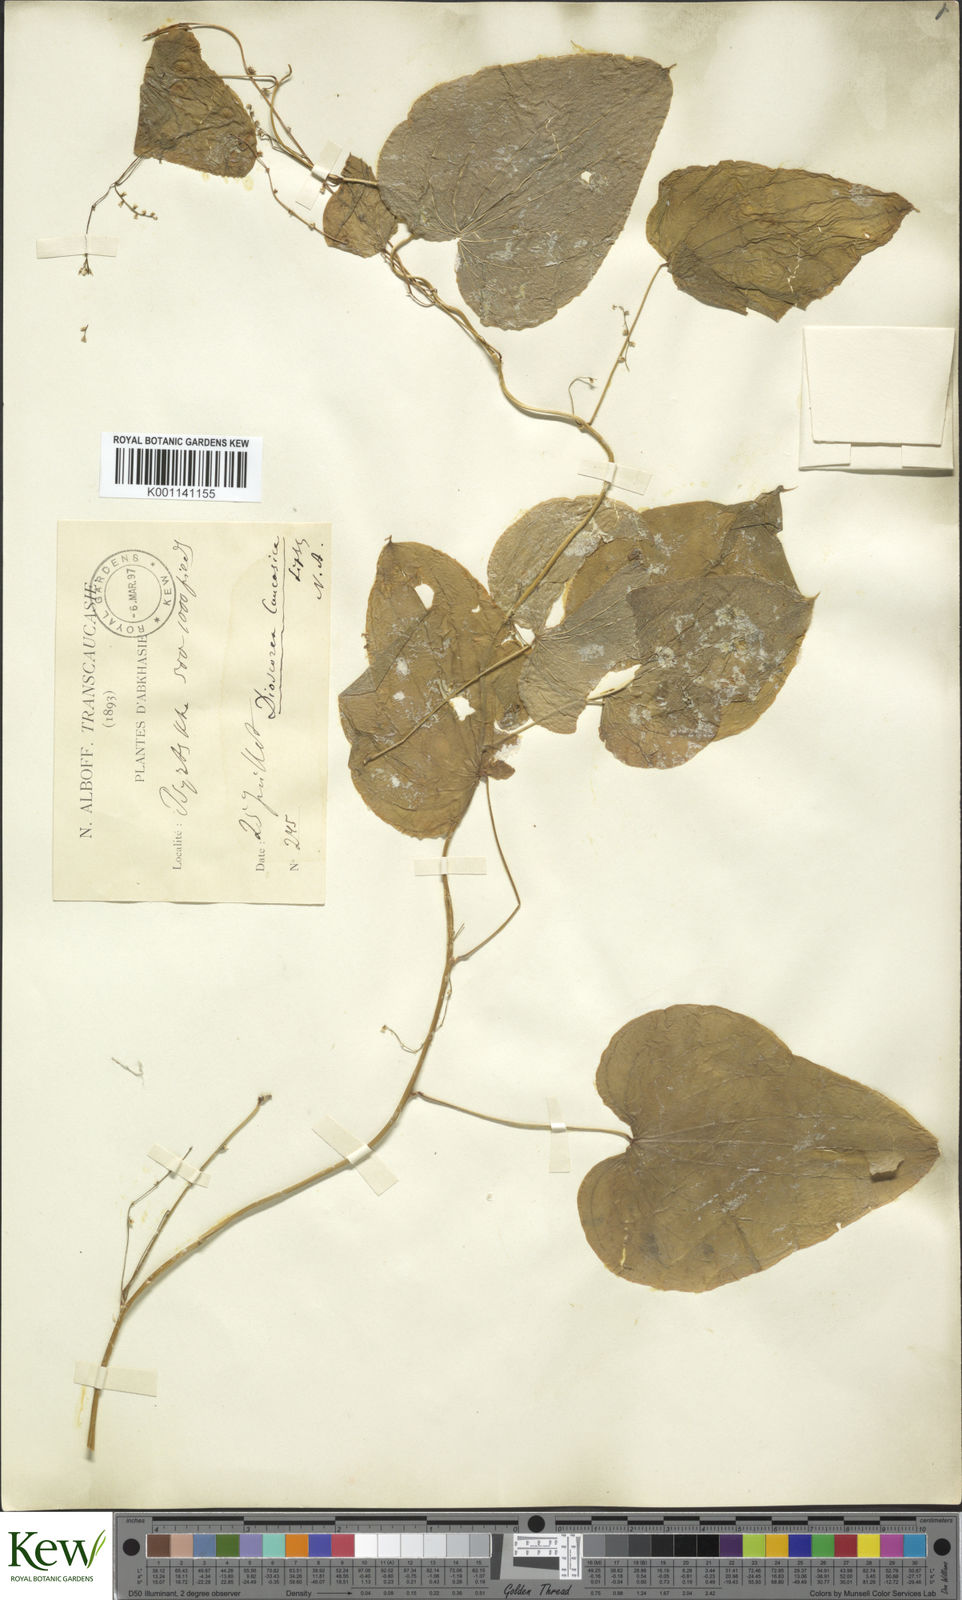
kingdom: Plantae
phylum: Tracheophyta
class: Liliopsida
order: Dioscoreales
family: Dioscoreaceae
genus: Dioscorea
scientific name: Dioscorea caucasica
